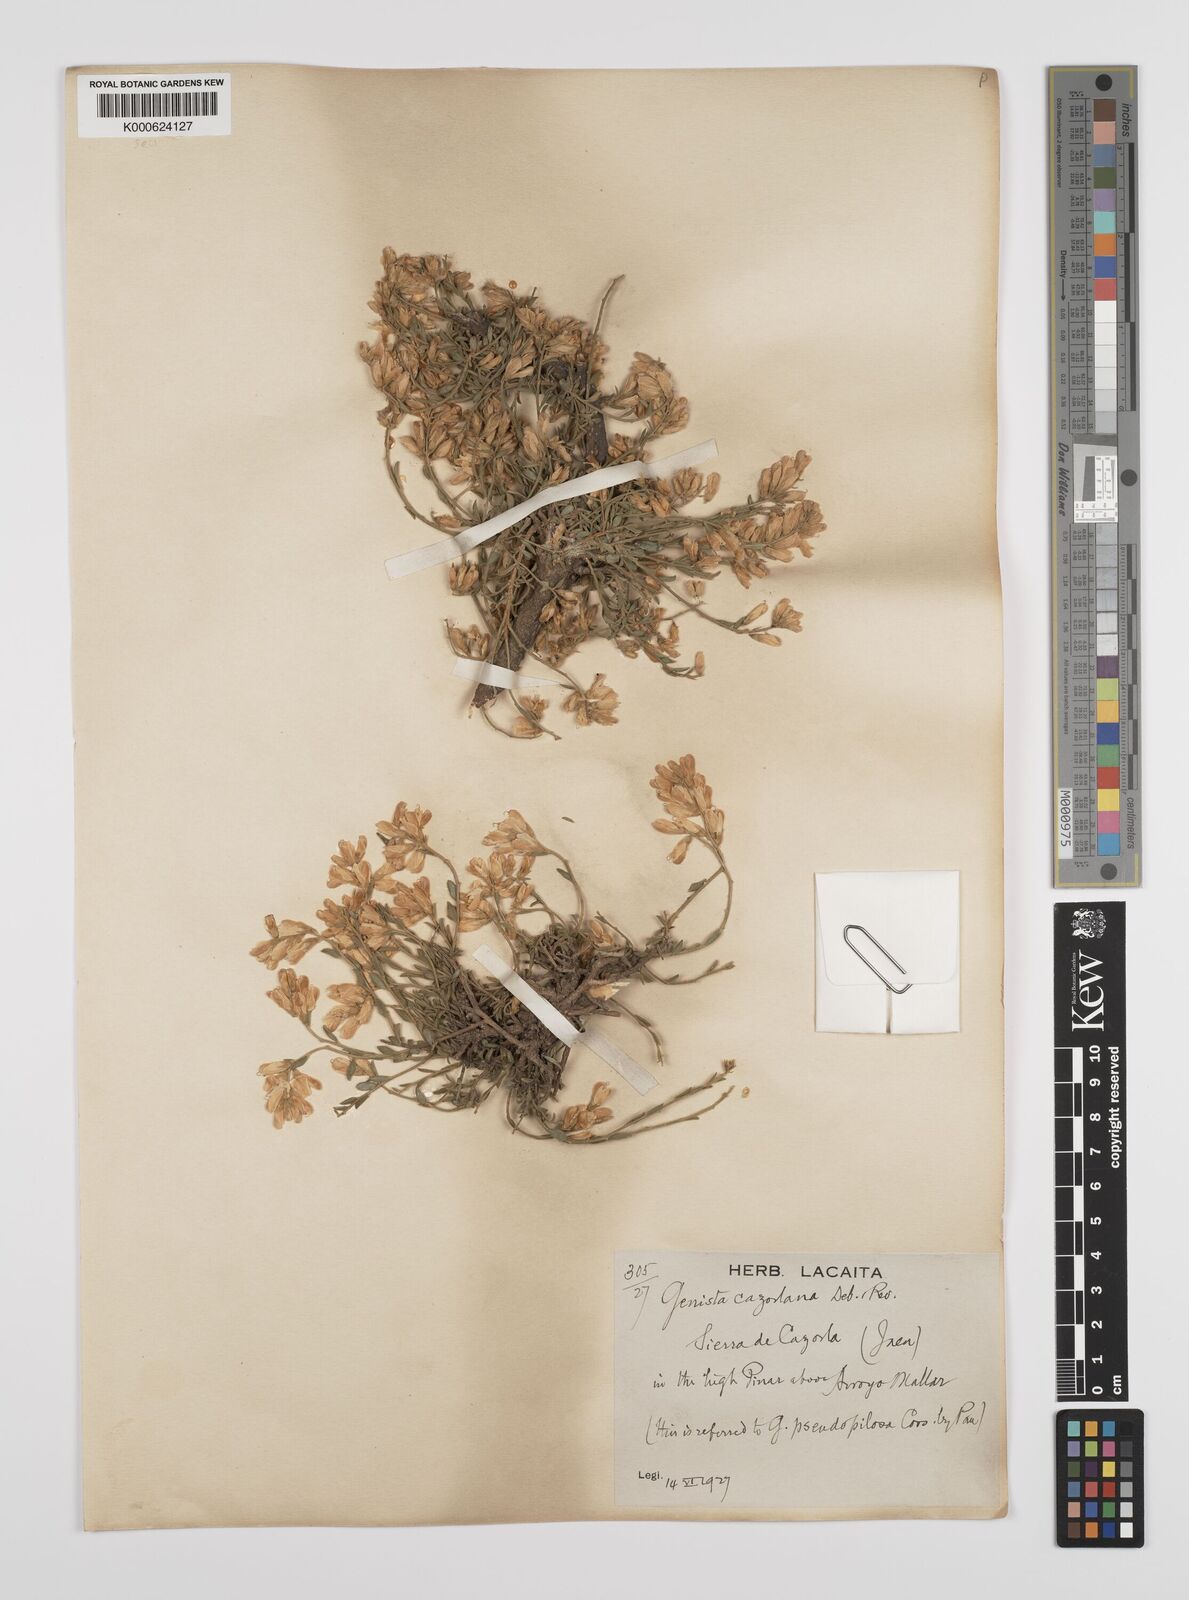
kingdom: Plantae
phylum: Tracheophyta
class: Magnoliopsida
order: Fabales
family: Fabaceae
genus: Genista
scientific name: Genista pseudopilosa
